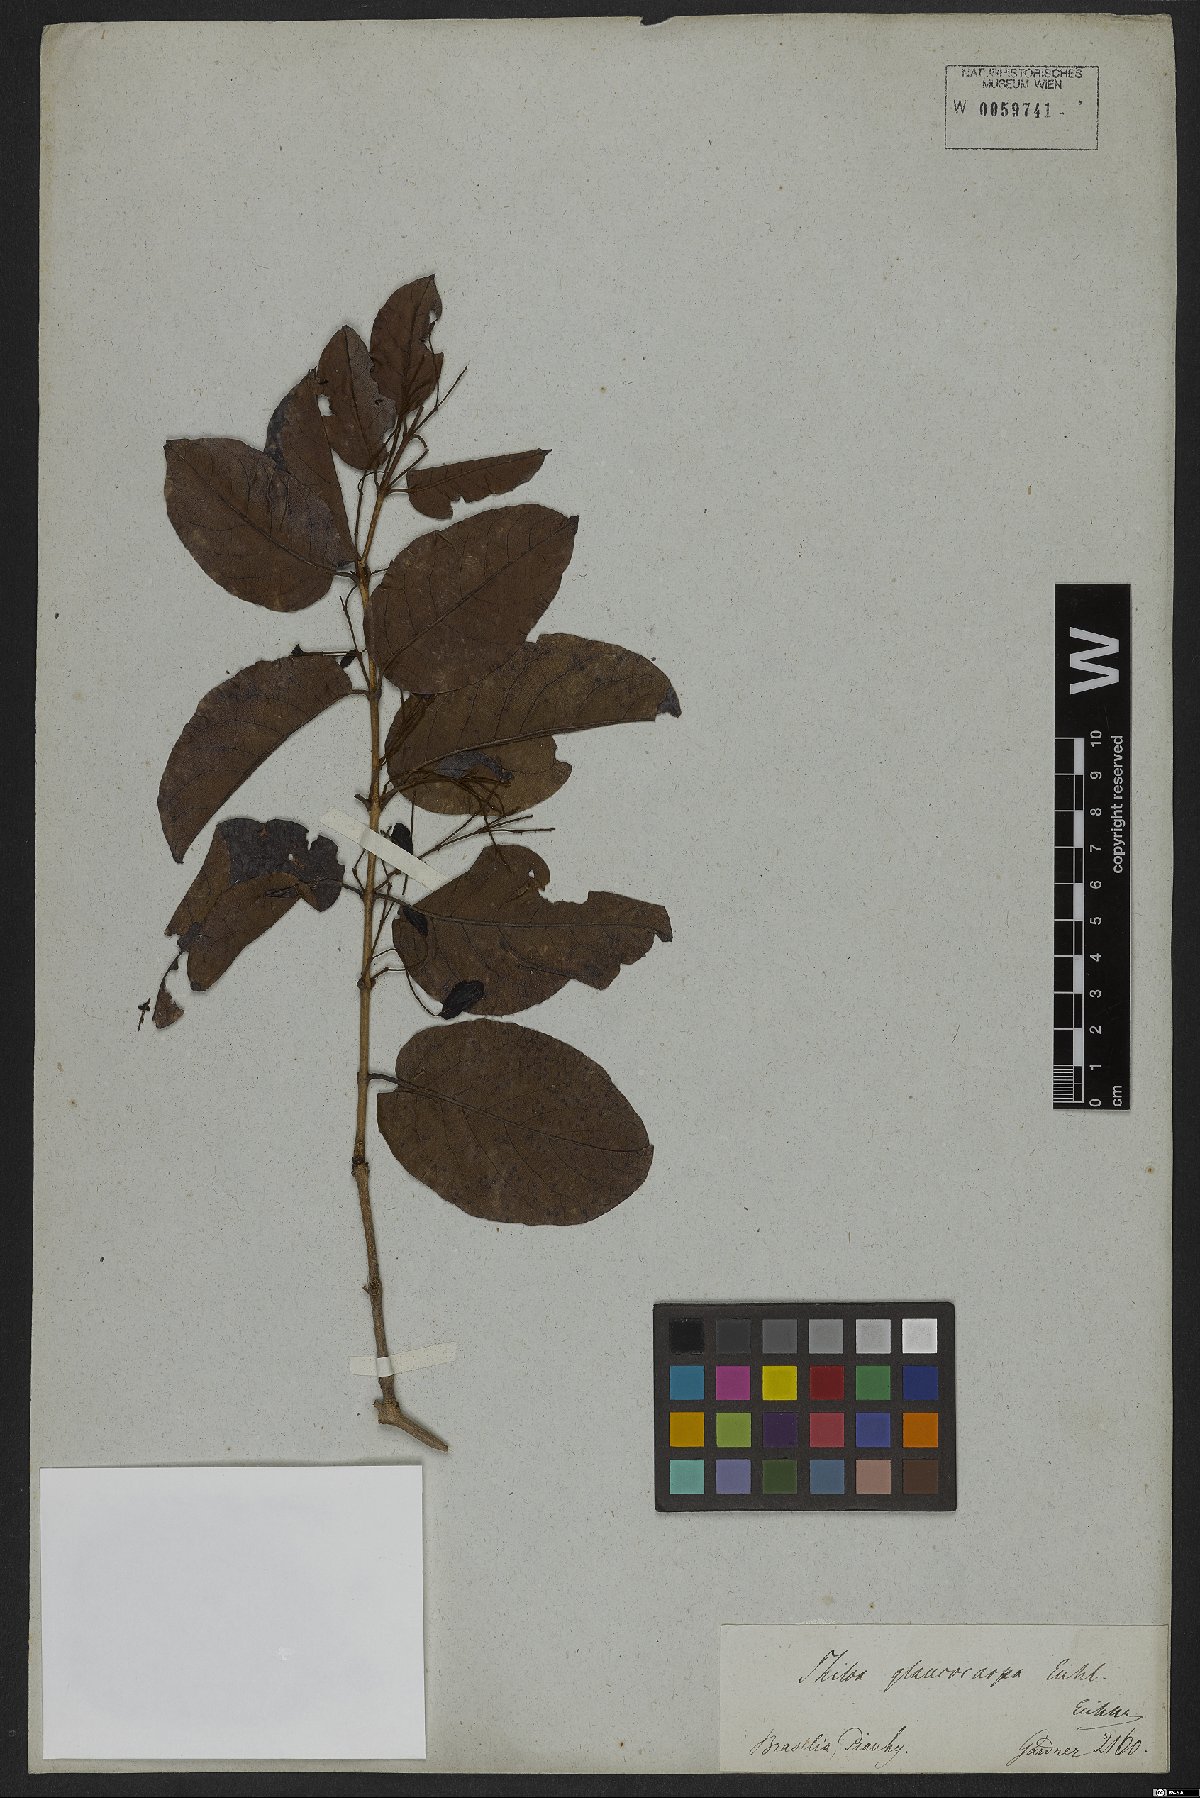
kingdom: Plantae
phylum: Tracheophyta
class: Magnoliopsida
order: Myrtales
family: Combretaceae
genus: Combretum
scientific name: Combretum glaucocarpum
